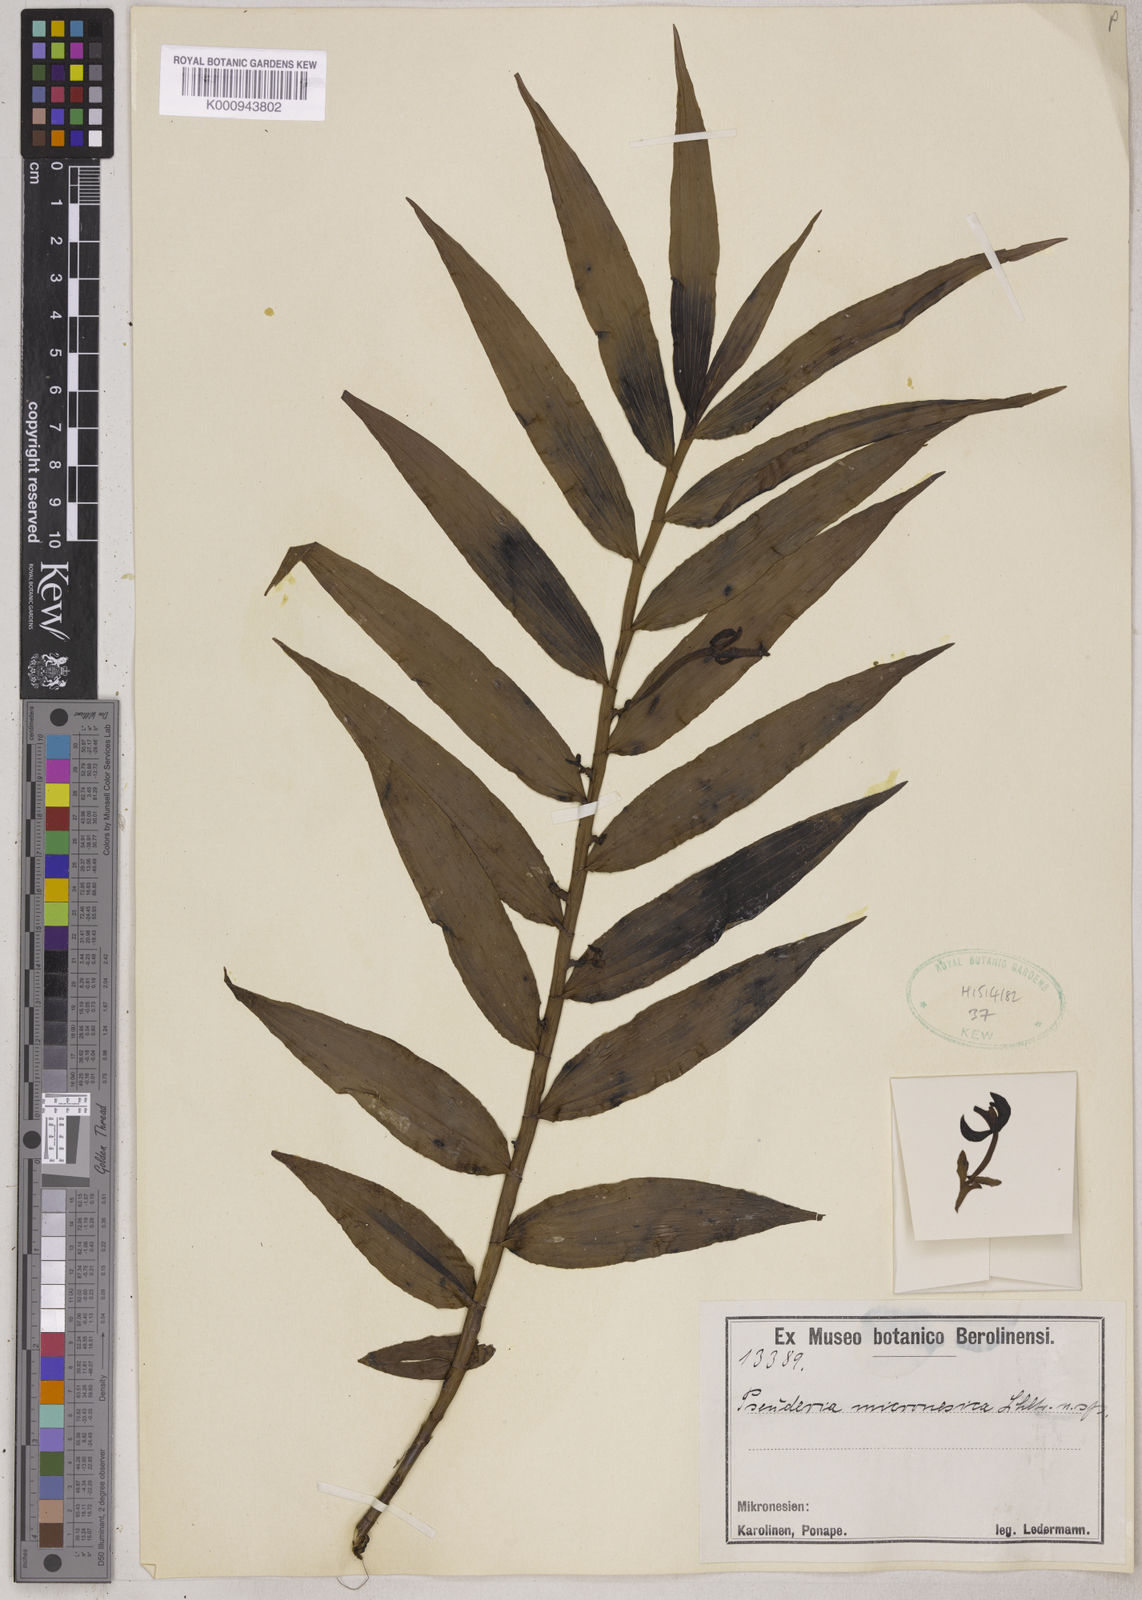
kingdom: Plantae
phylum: Tracheophyta
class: Liliopsida
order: Asparagales
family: Orchidaceae
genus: Pseuderia
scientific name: Pseuderia micronesiaca
